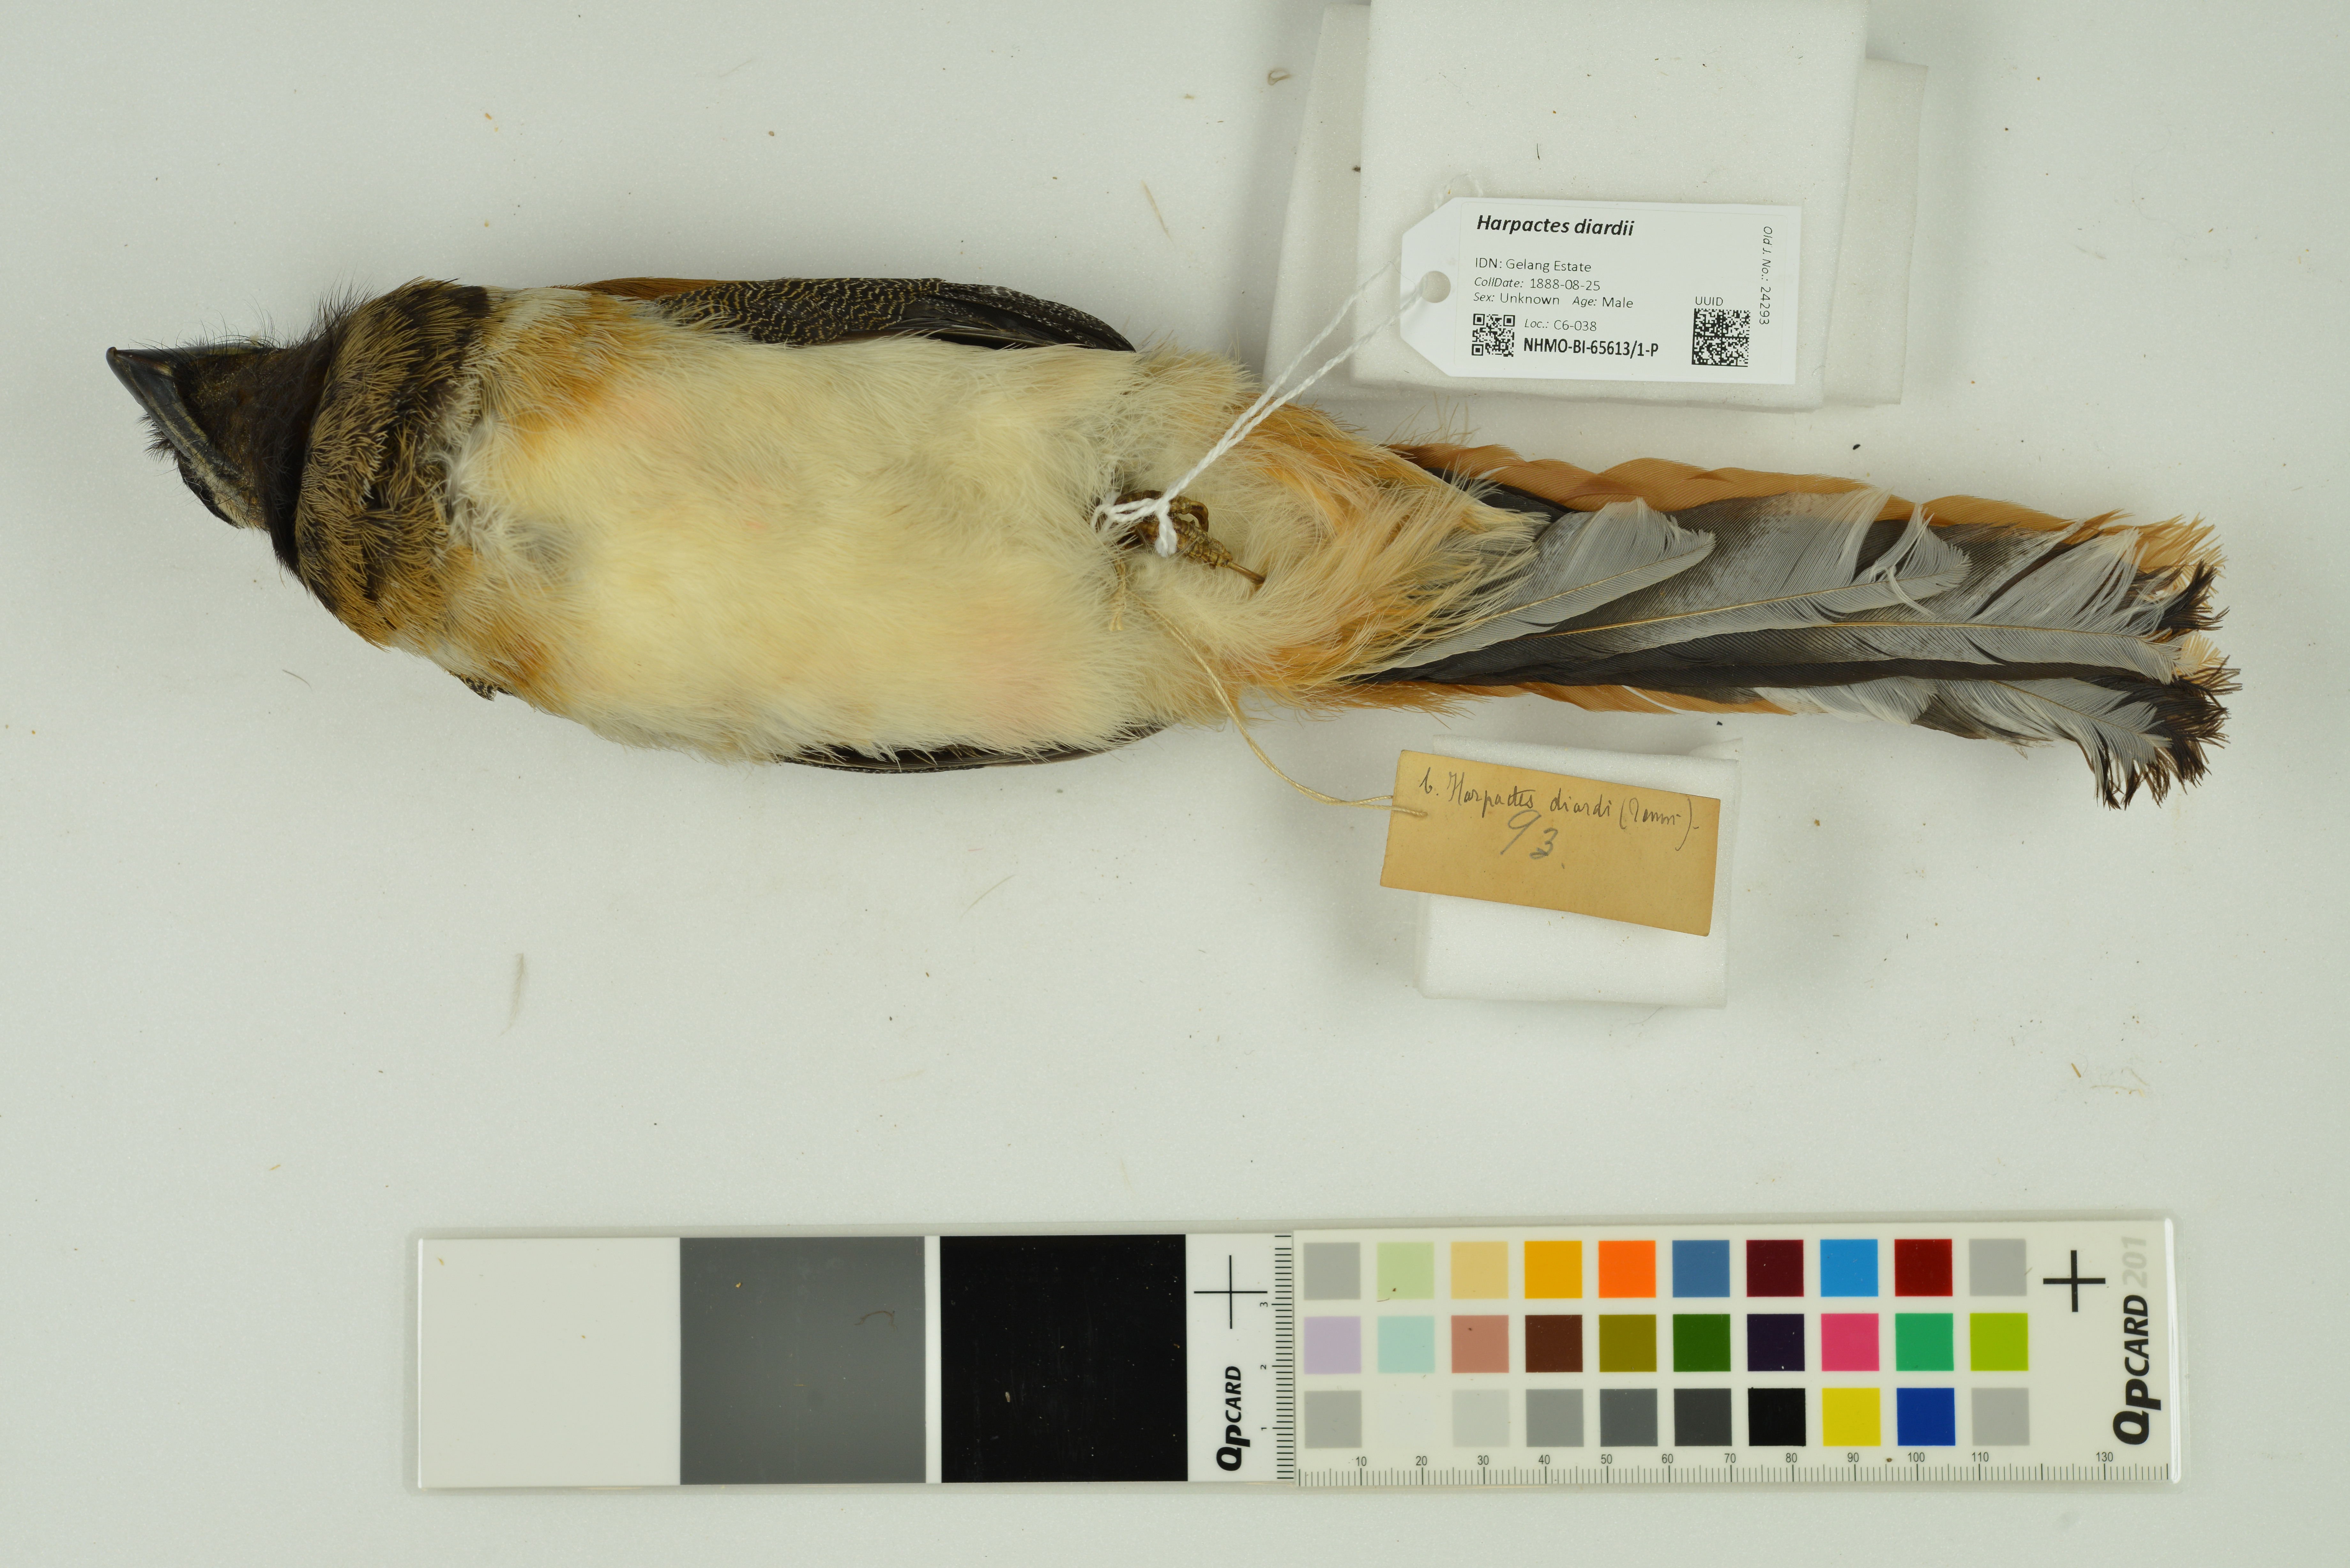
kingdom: Animalia
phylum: Chordata
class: Aves
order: Trogoniformes
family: Trogonidae
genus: Harpactes
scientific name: Harpactes diardii
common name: Diard's trogon
